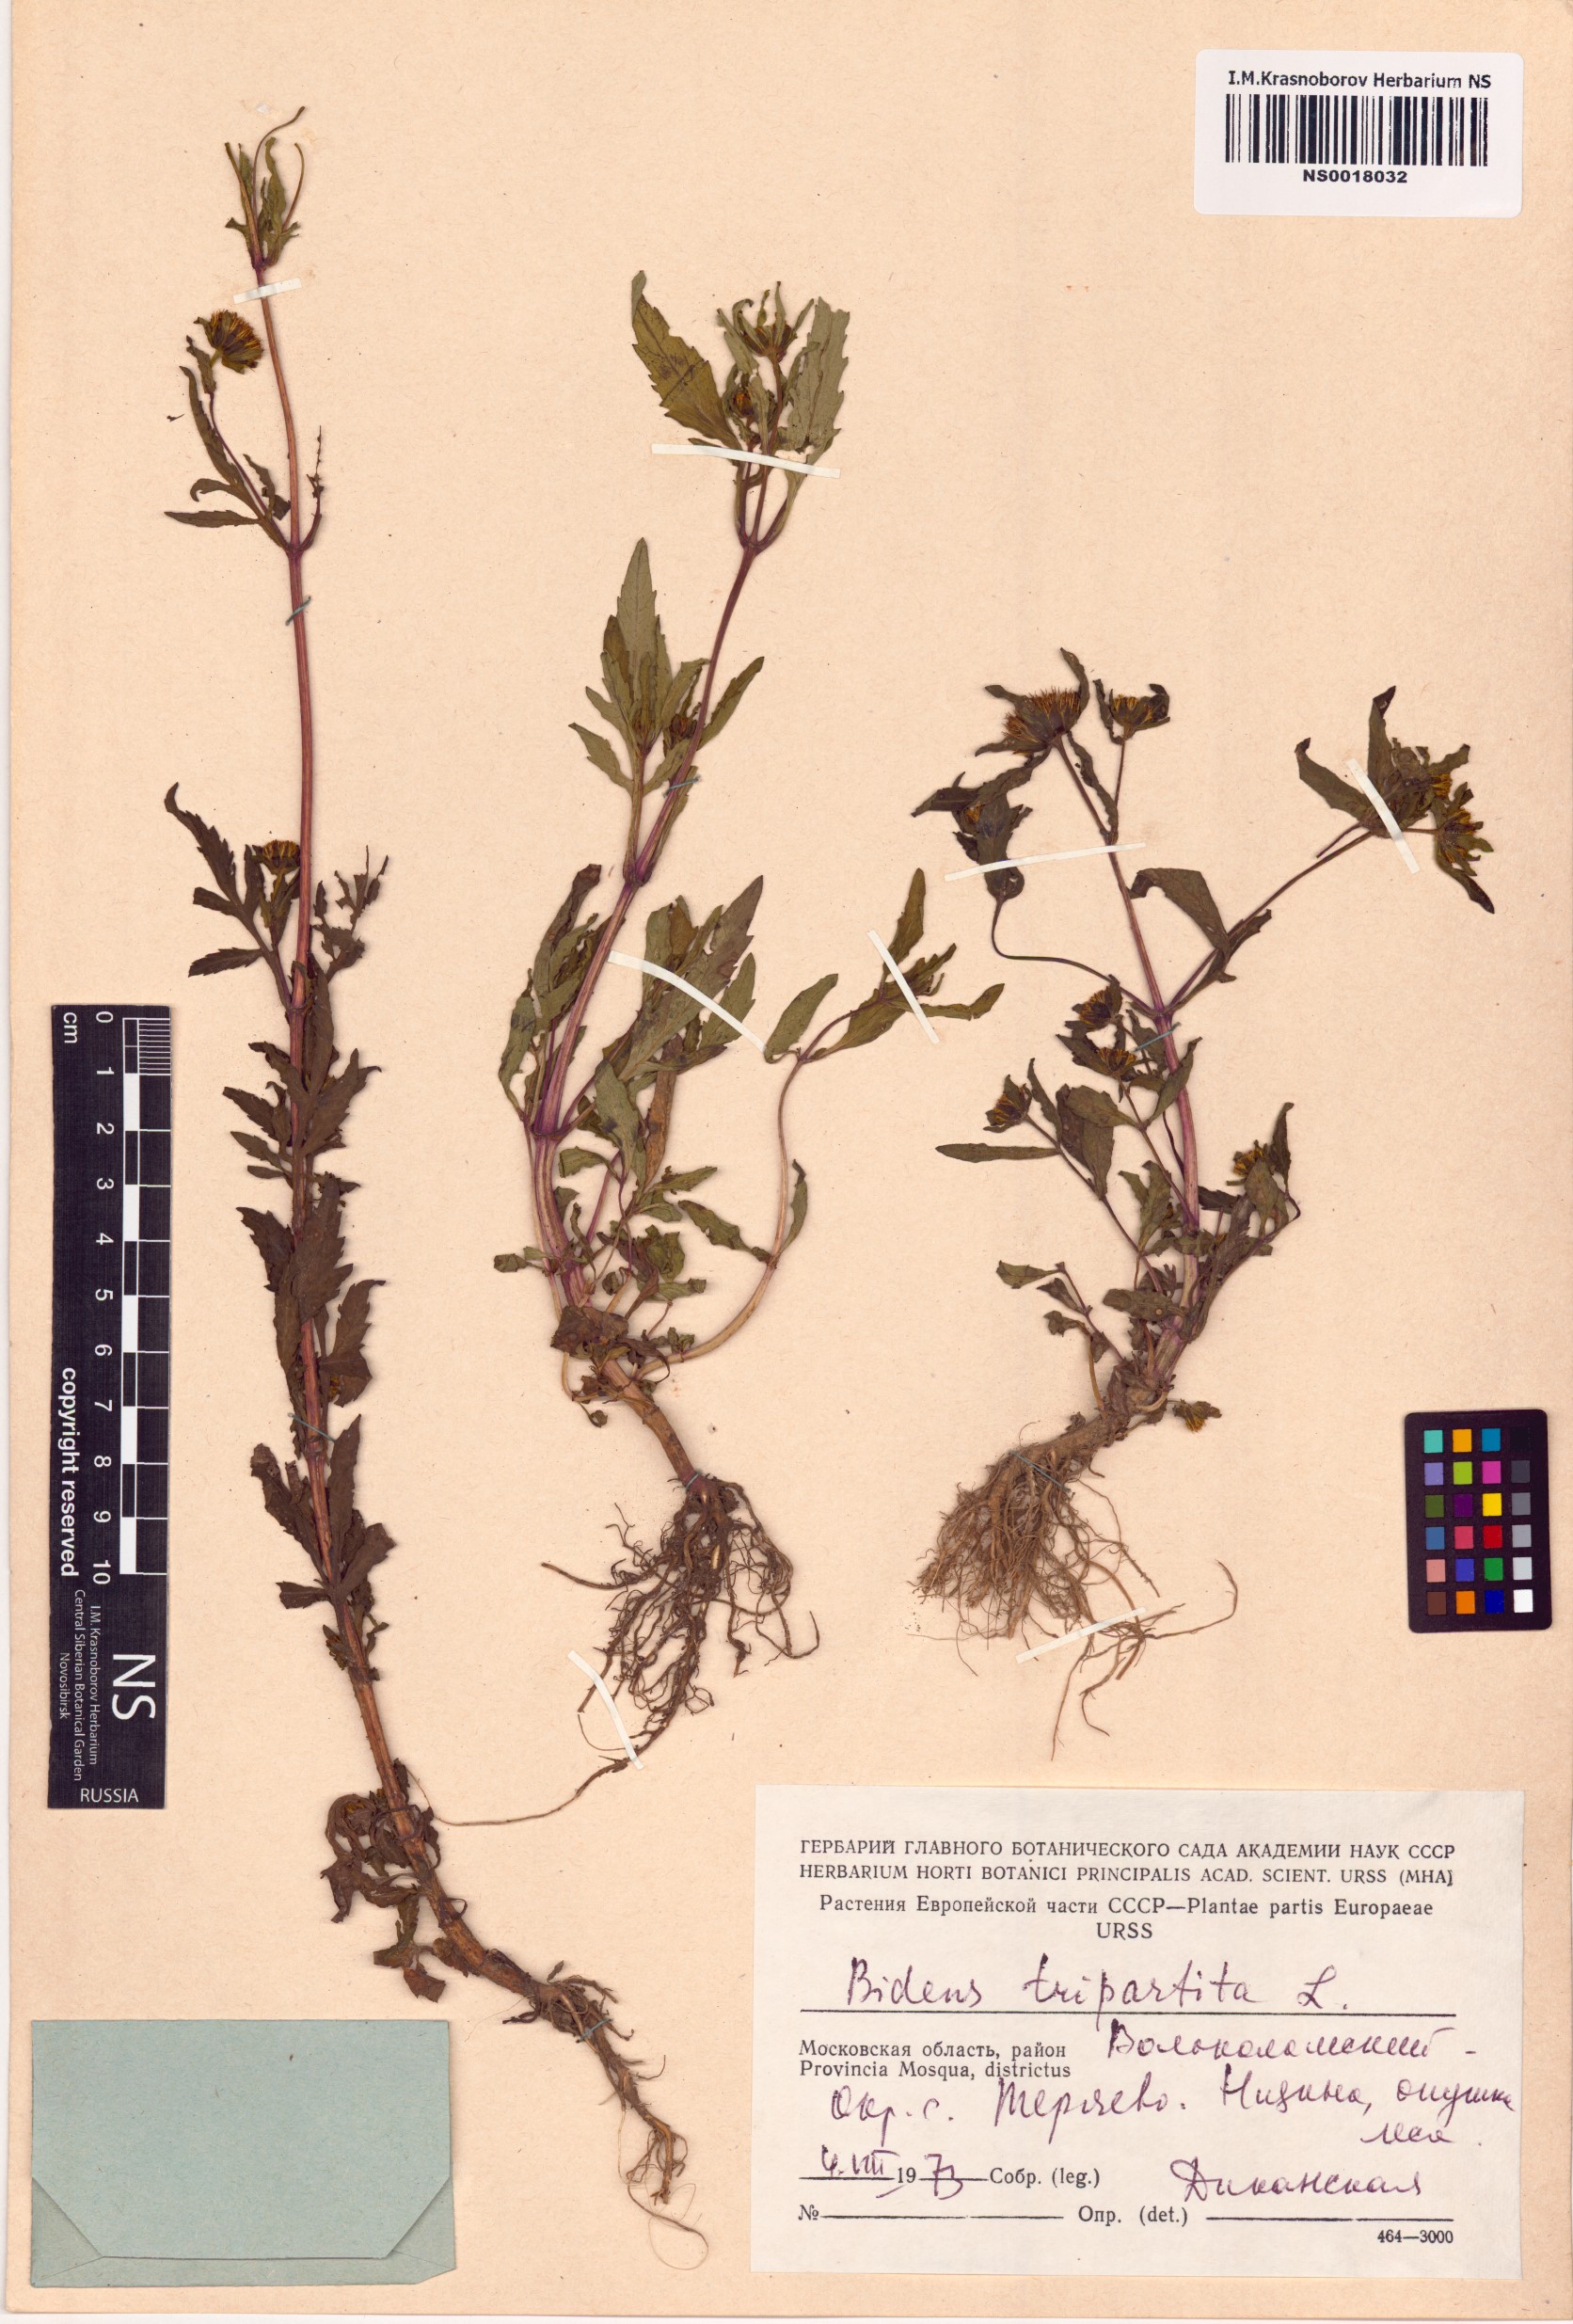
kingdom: Plantae
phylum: Tracheophyta
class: Magnoliopsida
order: Asterales
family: Asteraceae
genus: Bidens
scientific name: Bidens tripartita
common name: Trifid bur-marigold
